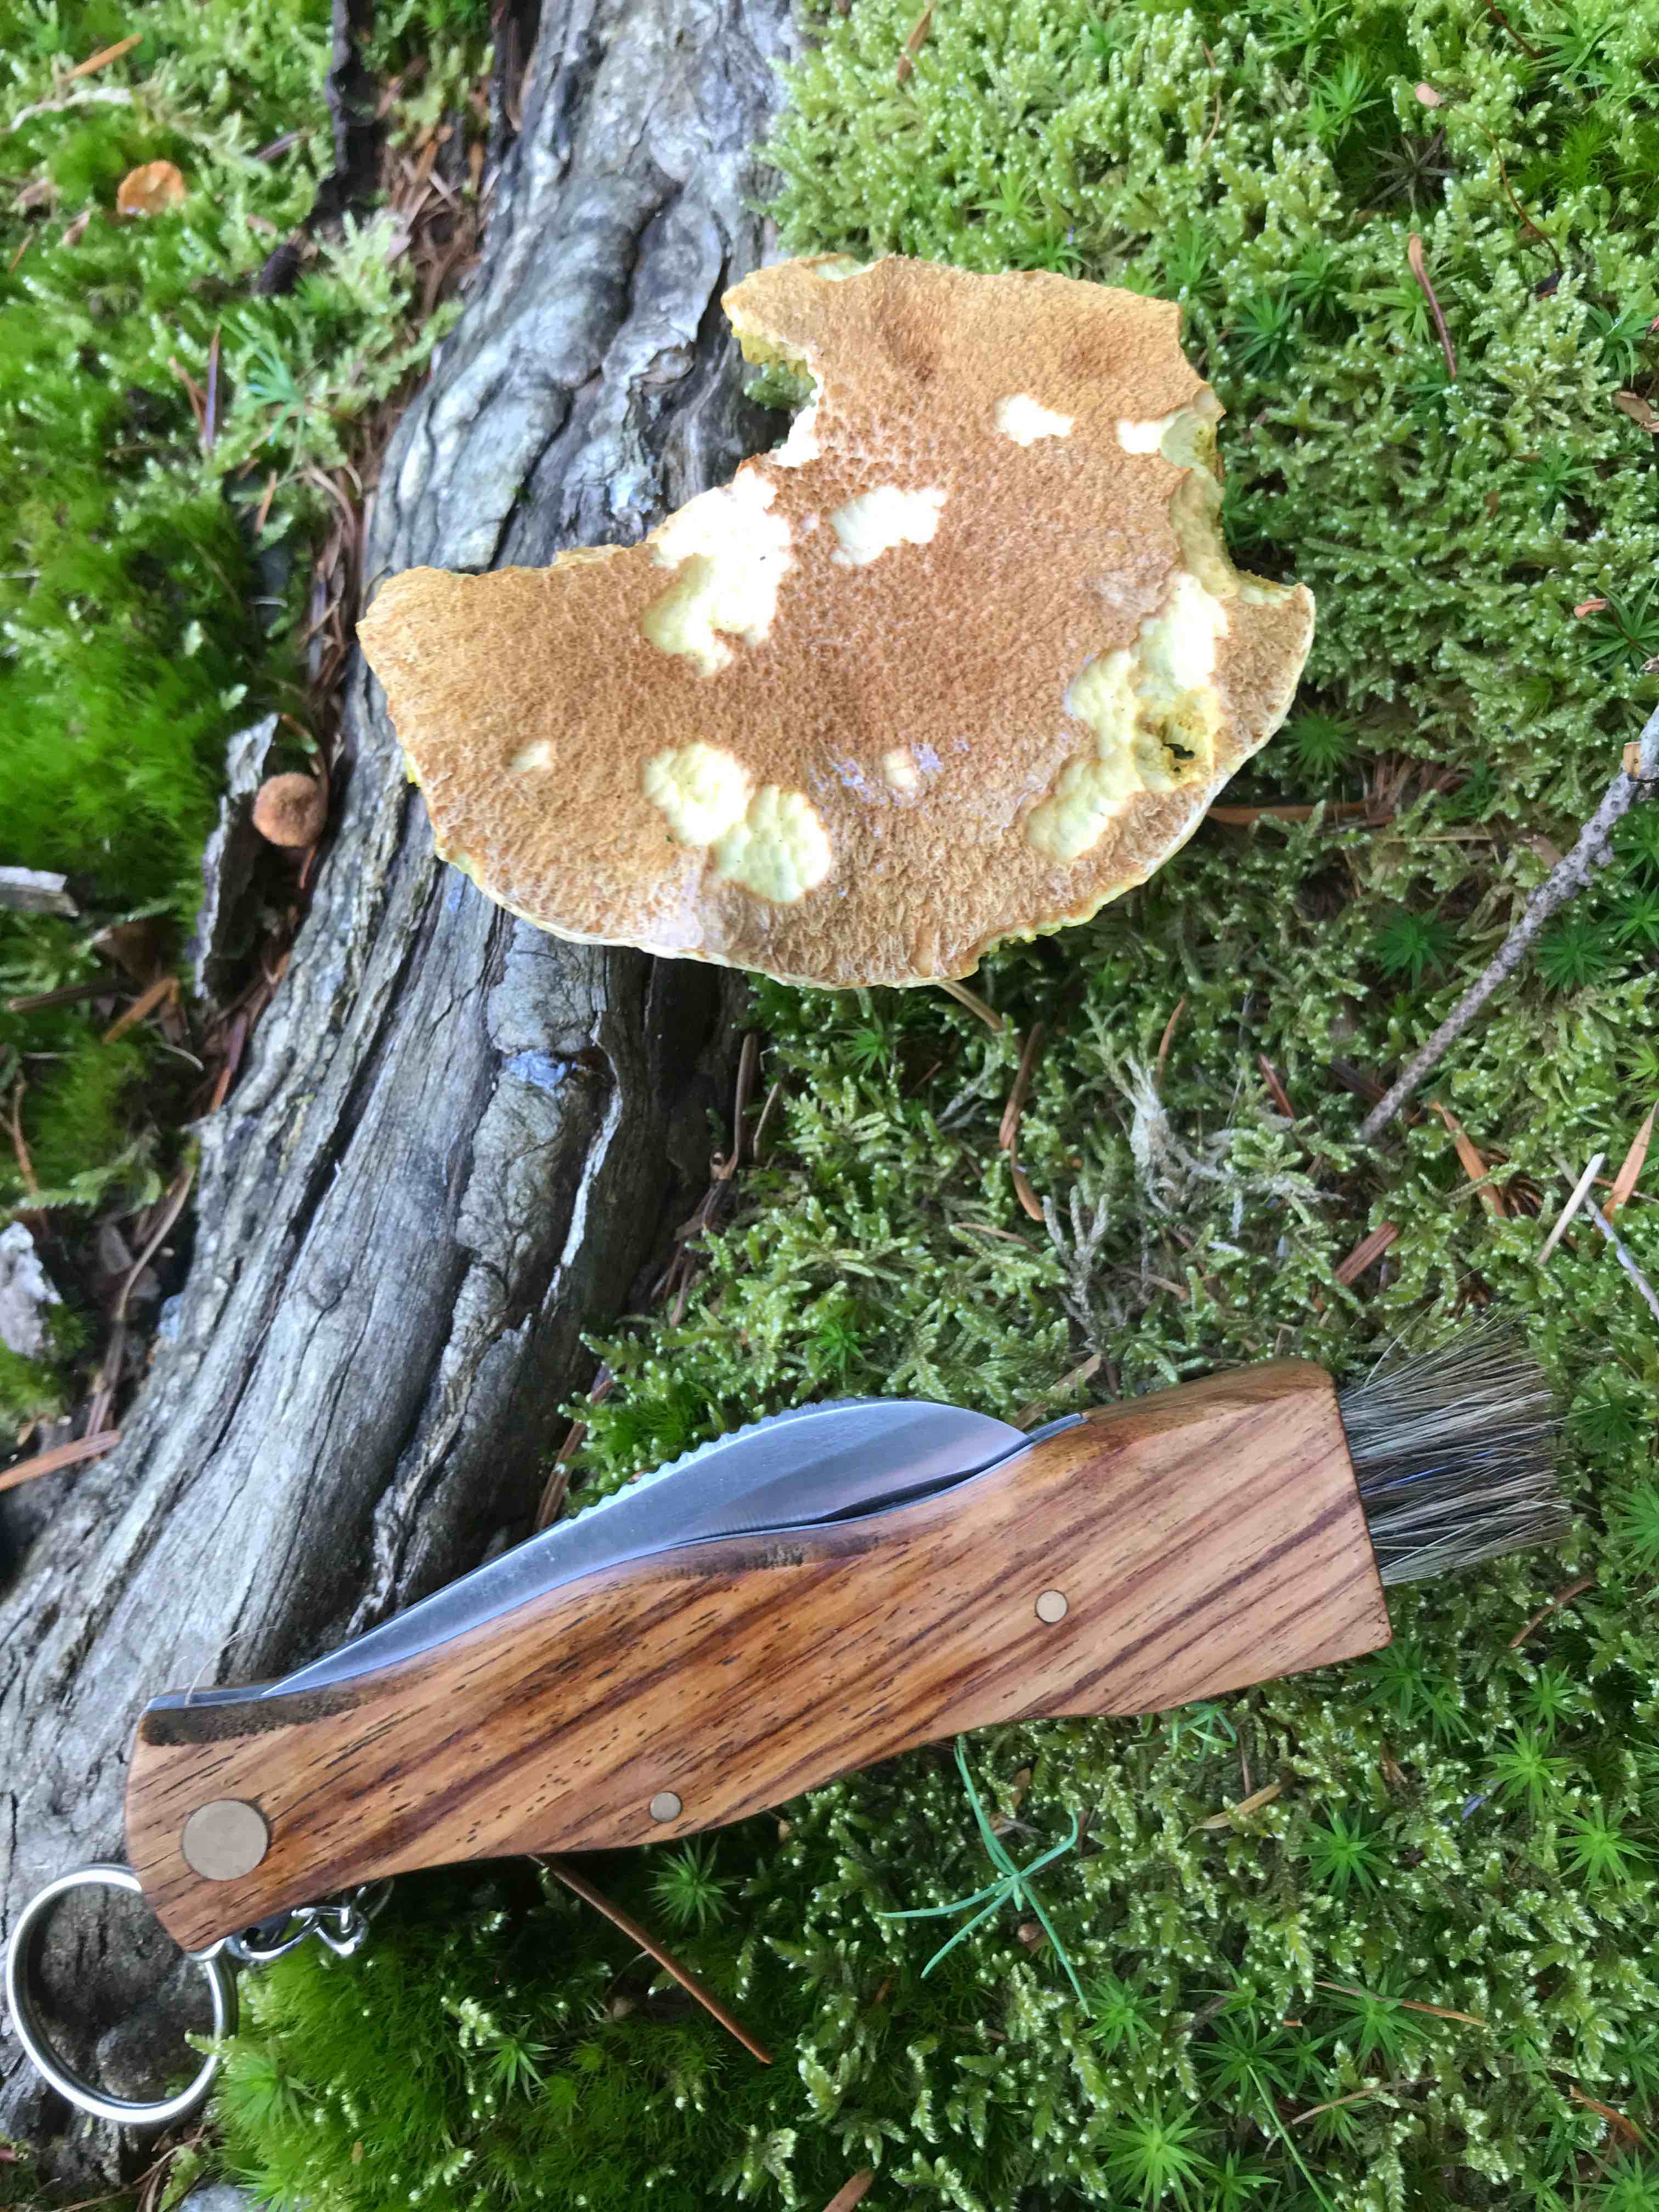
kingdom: Fungi
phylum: Basidiomycota
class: Agaricomycetes
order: Boletales
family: Suillaceae
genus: Suillus
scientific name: Suillus cavipes
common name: hulstokket slimrørhat
